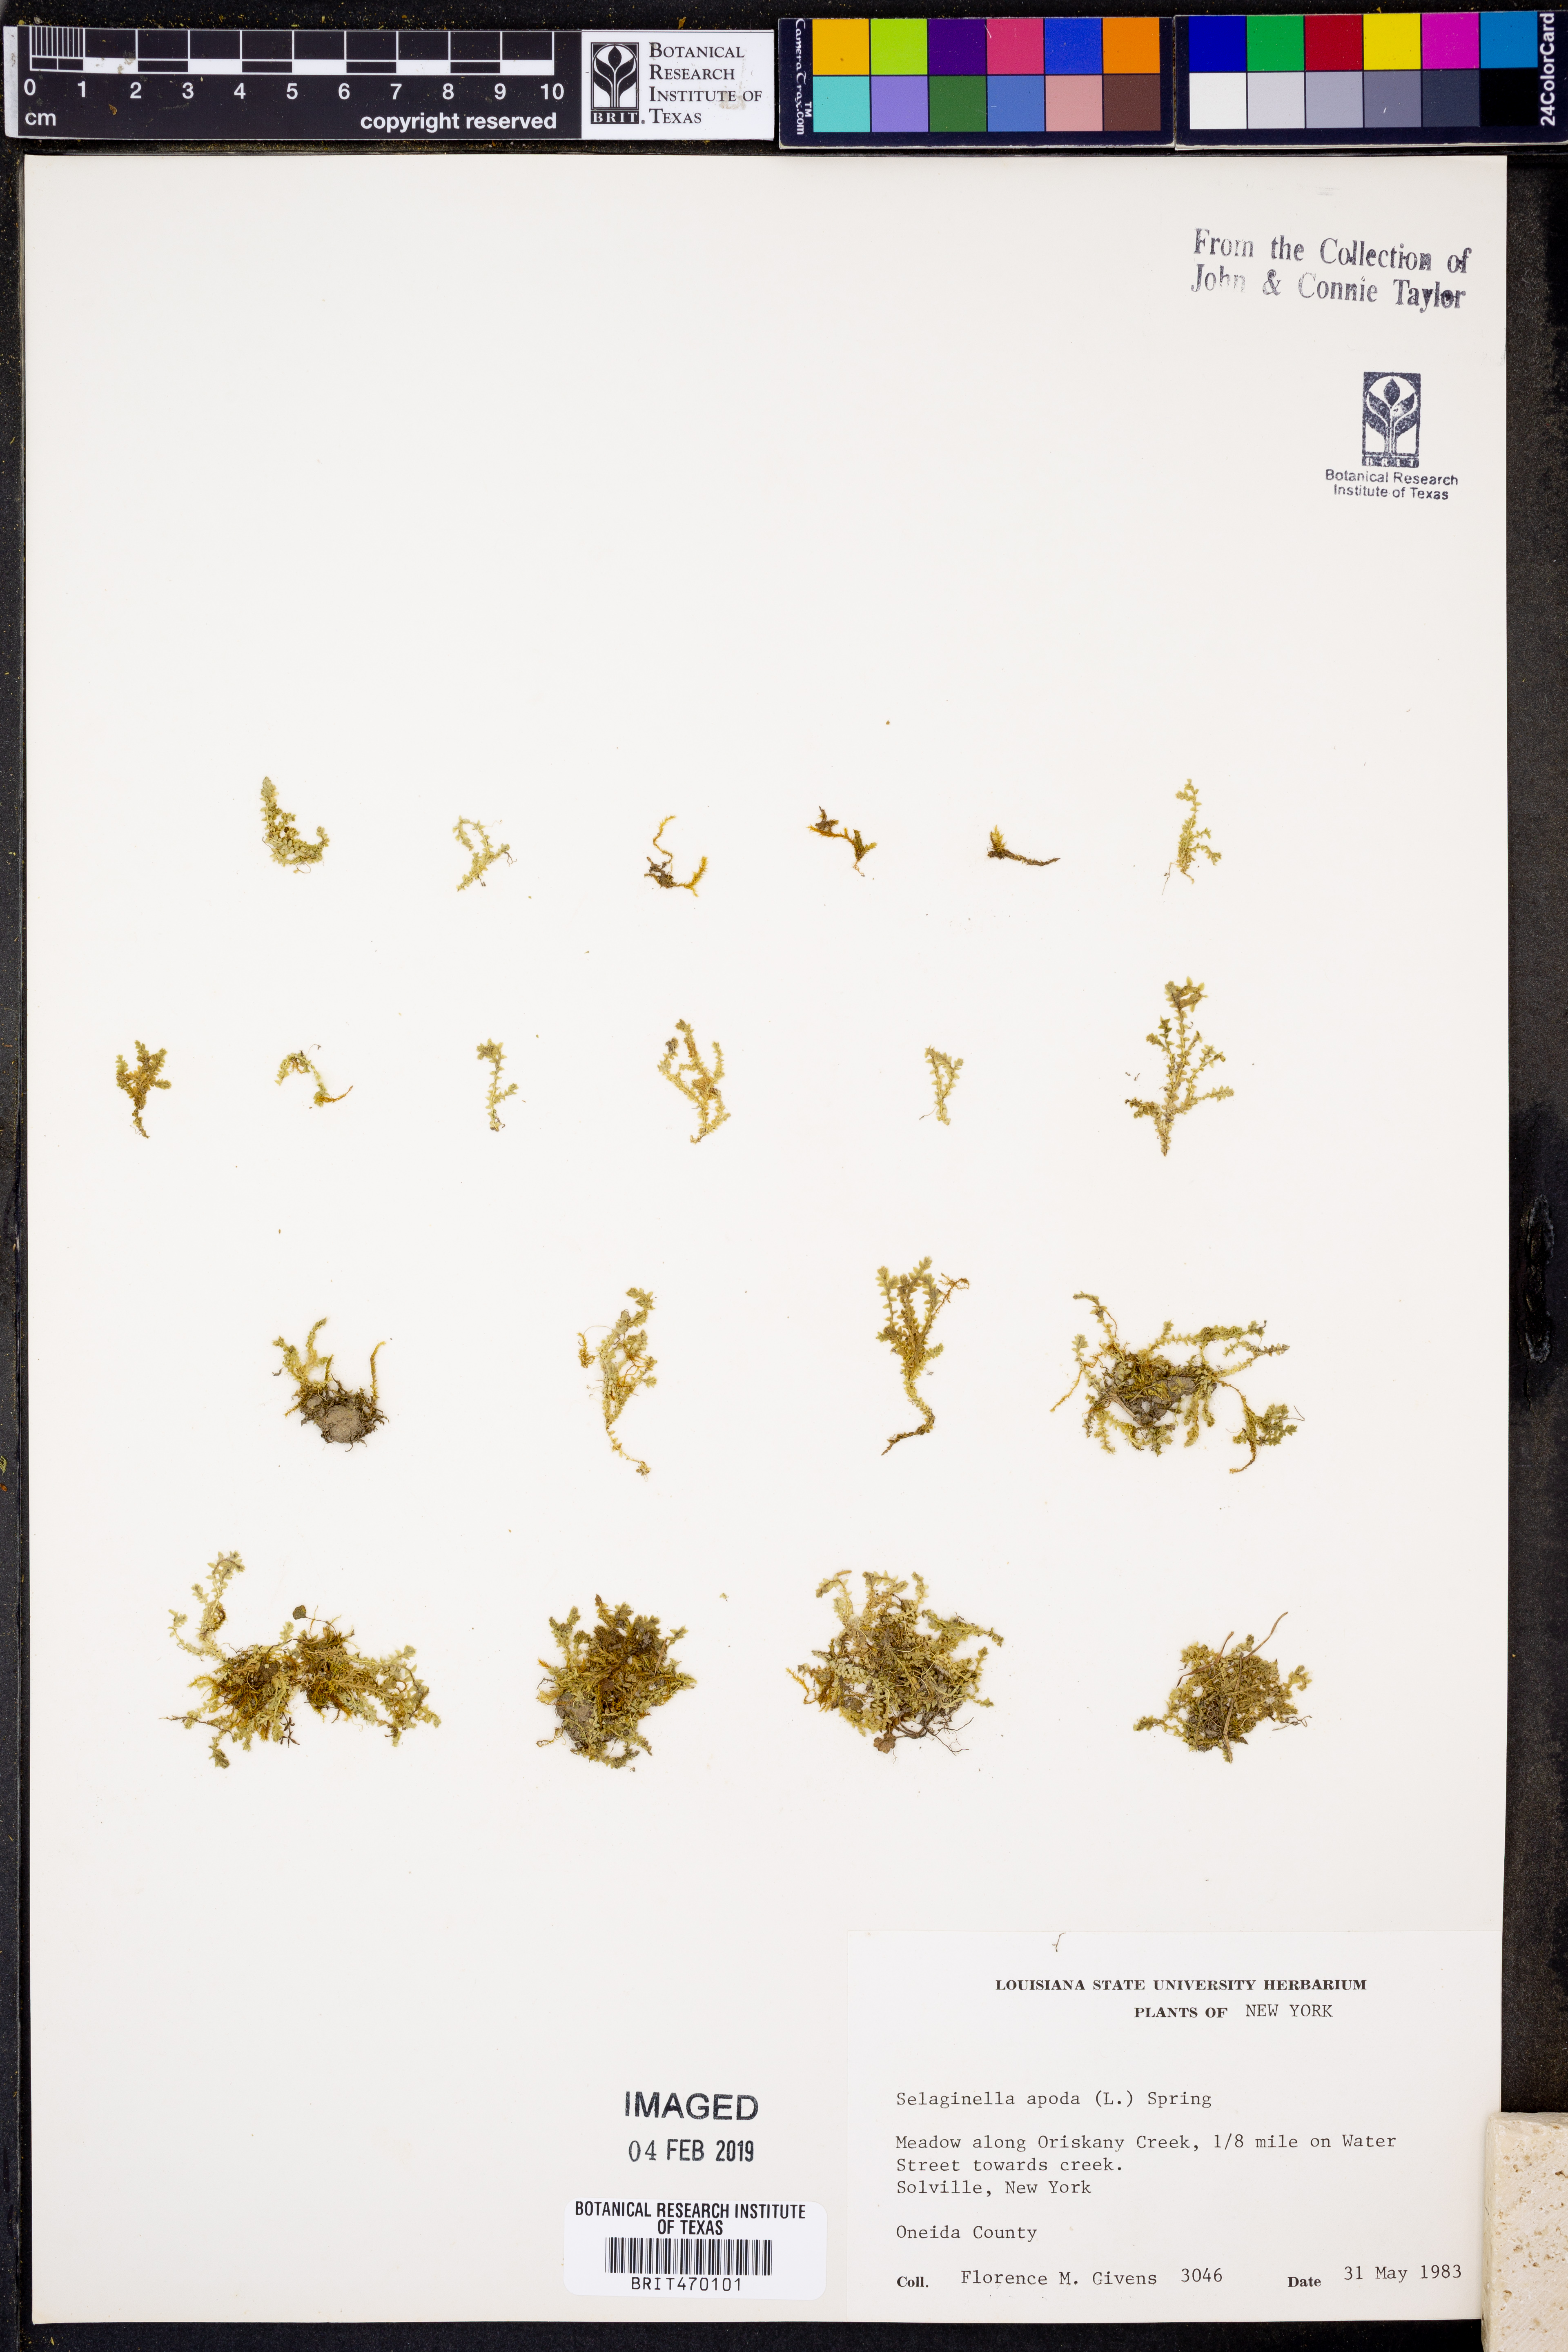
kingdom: Plantae
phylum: Tracheophyta
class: Lycopodiopsida
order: Selaginellales
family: Selaginellaceae
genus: Selaginella
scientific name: Selaginella apoda
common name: Creeping spikemoss
